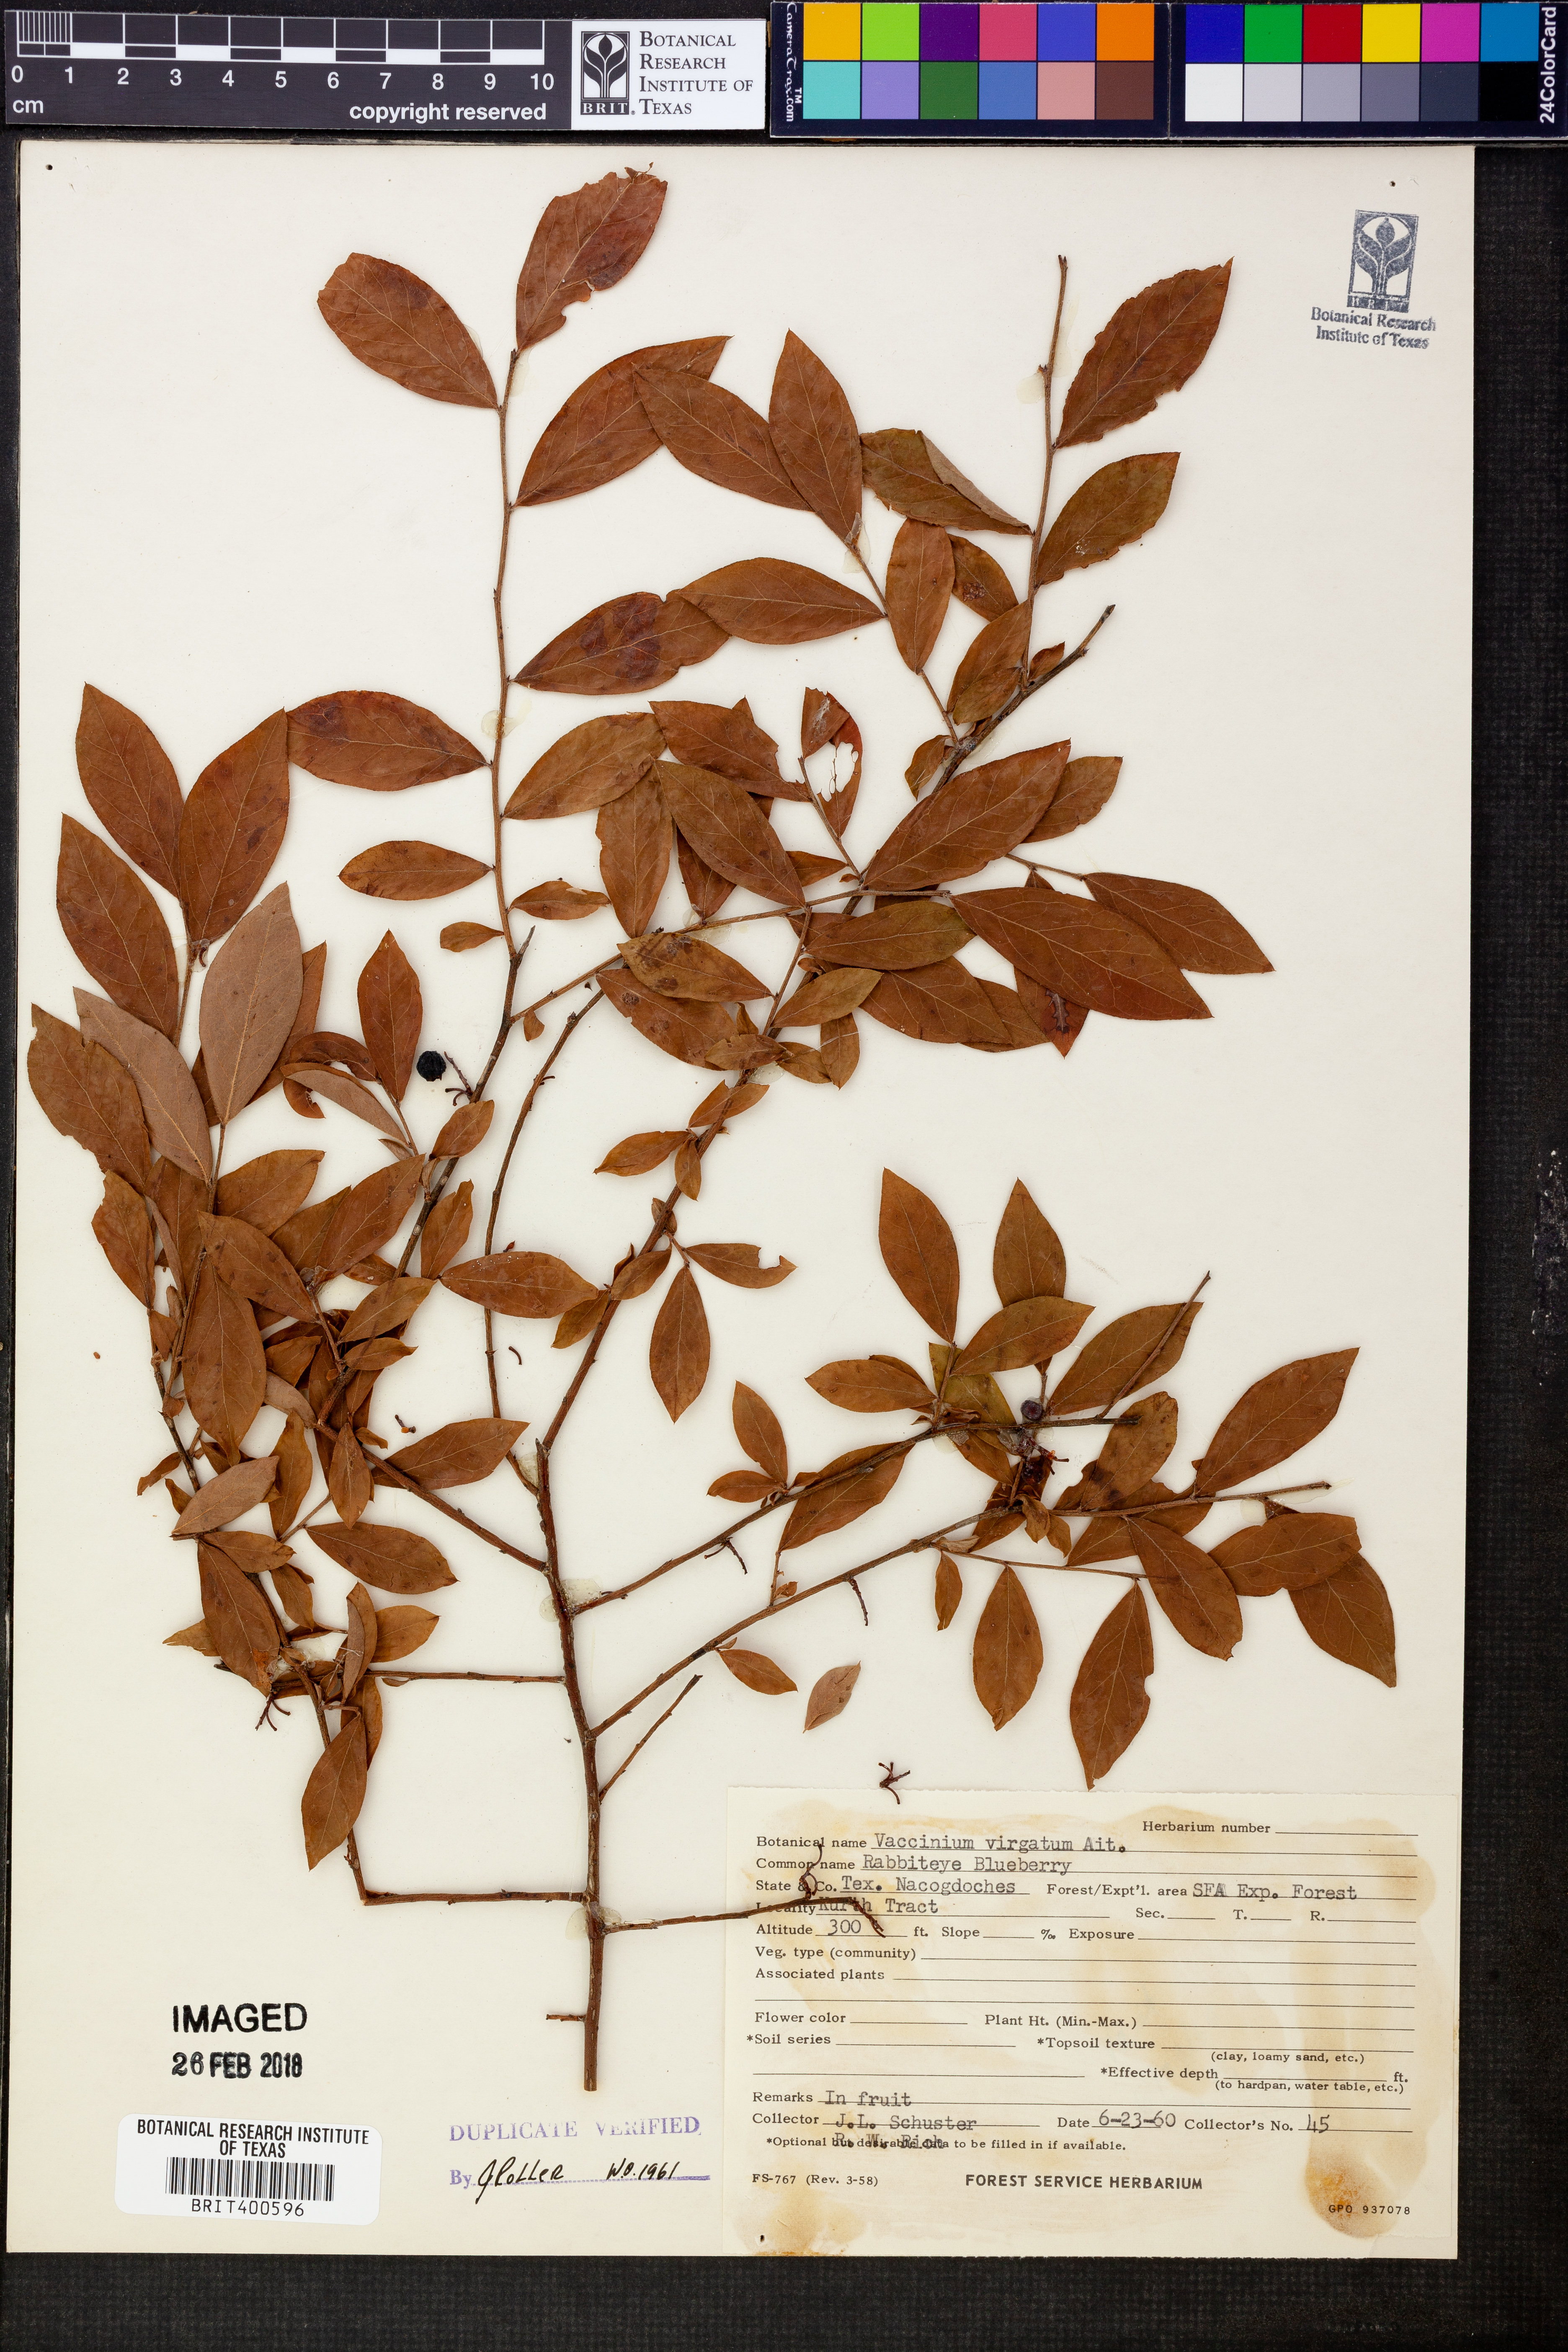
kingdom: Plantae
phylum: Tracheophyta
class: Magnoliopsida
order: Ericales
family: Ericaceae
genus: Vaccinium
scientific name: Vaccinium corymbosum
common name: Blueberry
